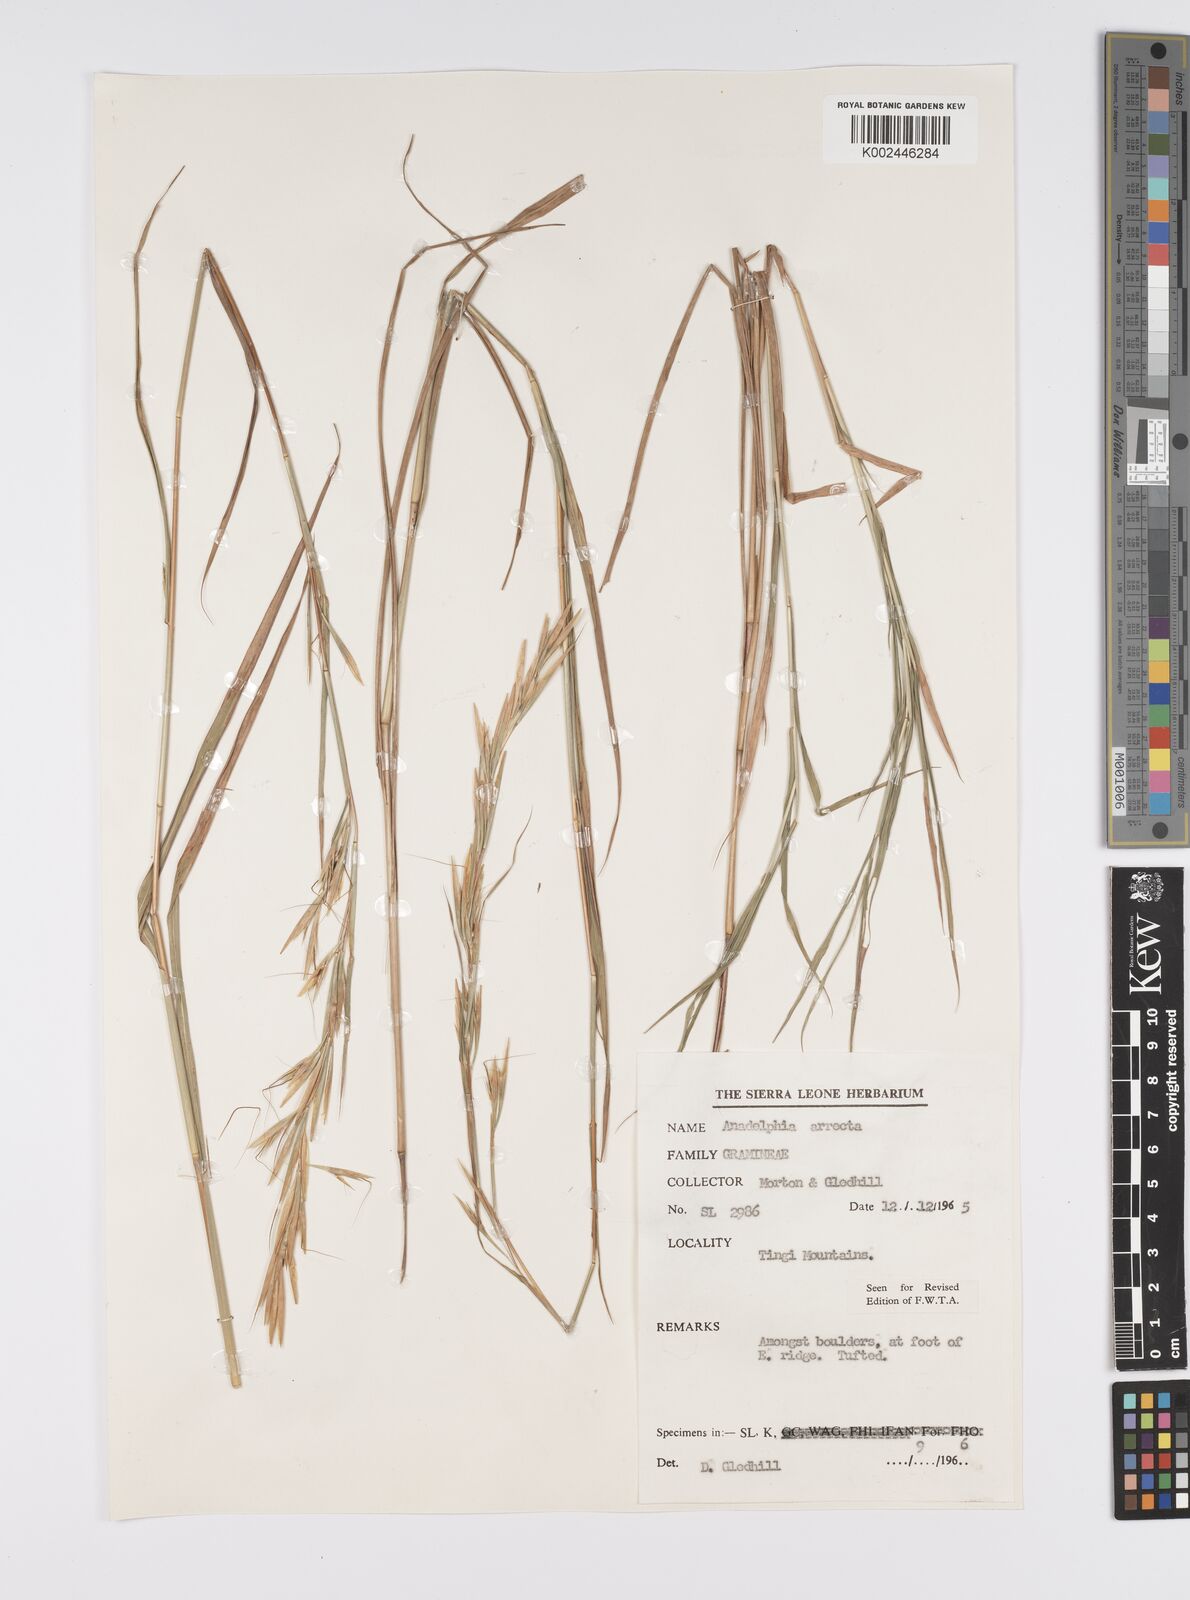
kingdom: Plantae
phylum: Tracheophyta
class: Liliopsida
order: Poales
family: Poaceae
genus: Anadelphia
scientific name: Anadelphia afzeliana
